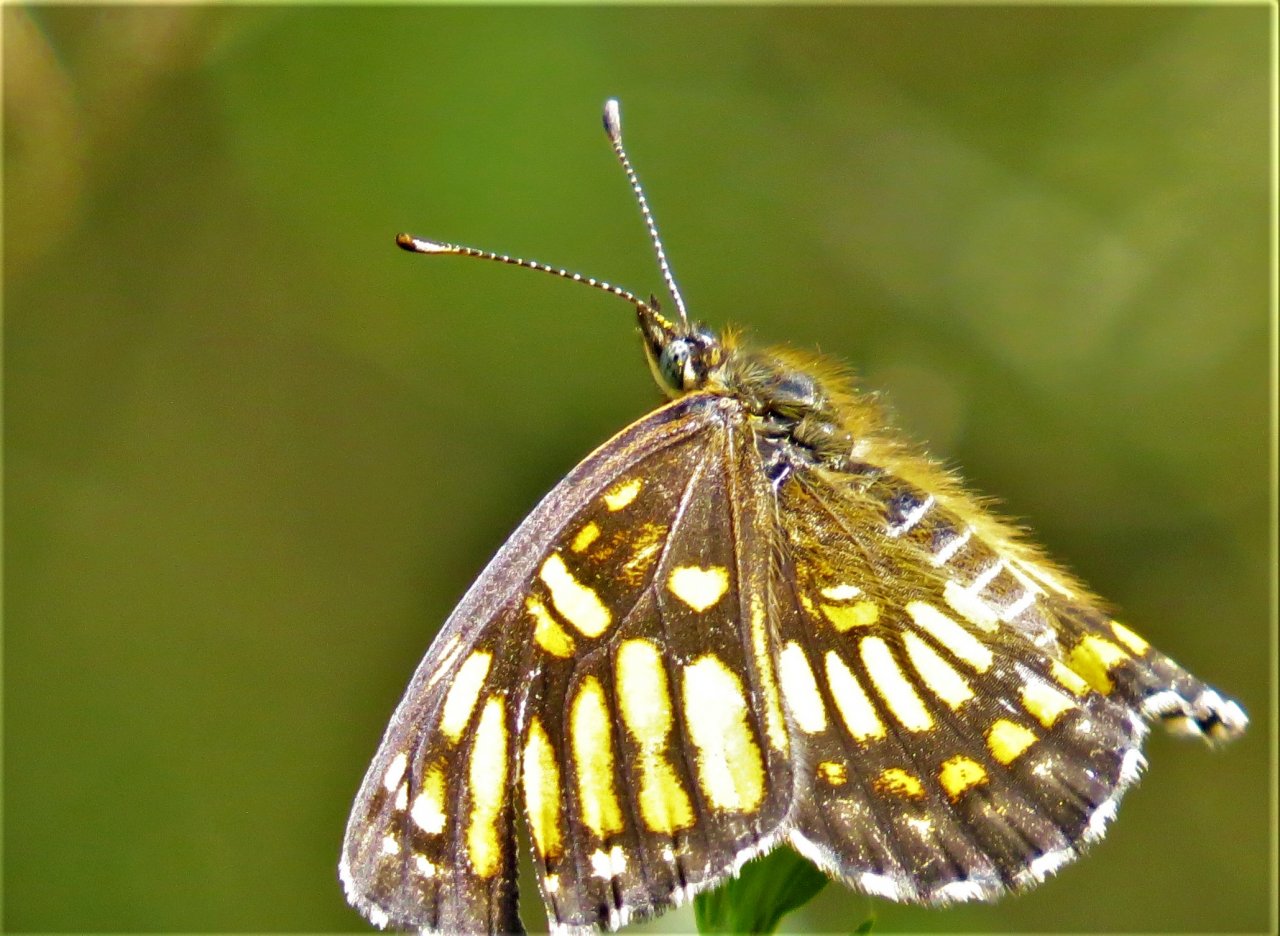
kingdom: Animalia
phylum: Arthropoda
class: Insecta
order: Lepidoptera
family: Nymphalidae
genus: Thessalia
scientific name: Thessalia theona
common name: Theona Checkerspot
